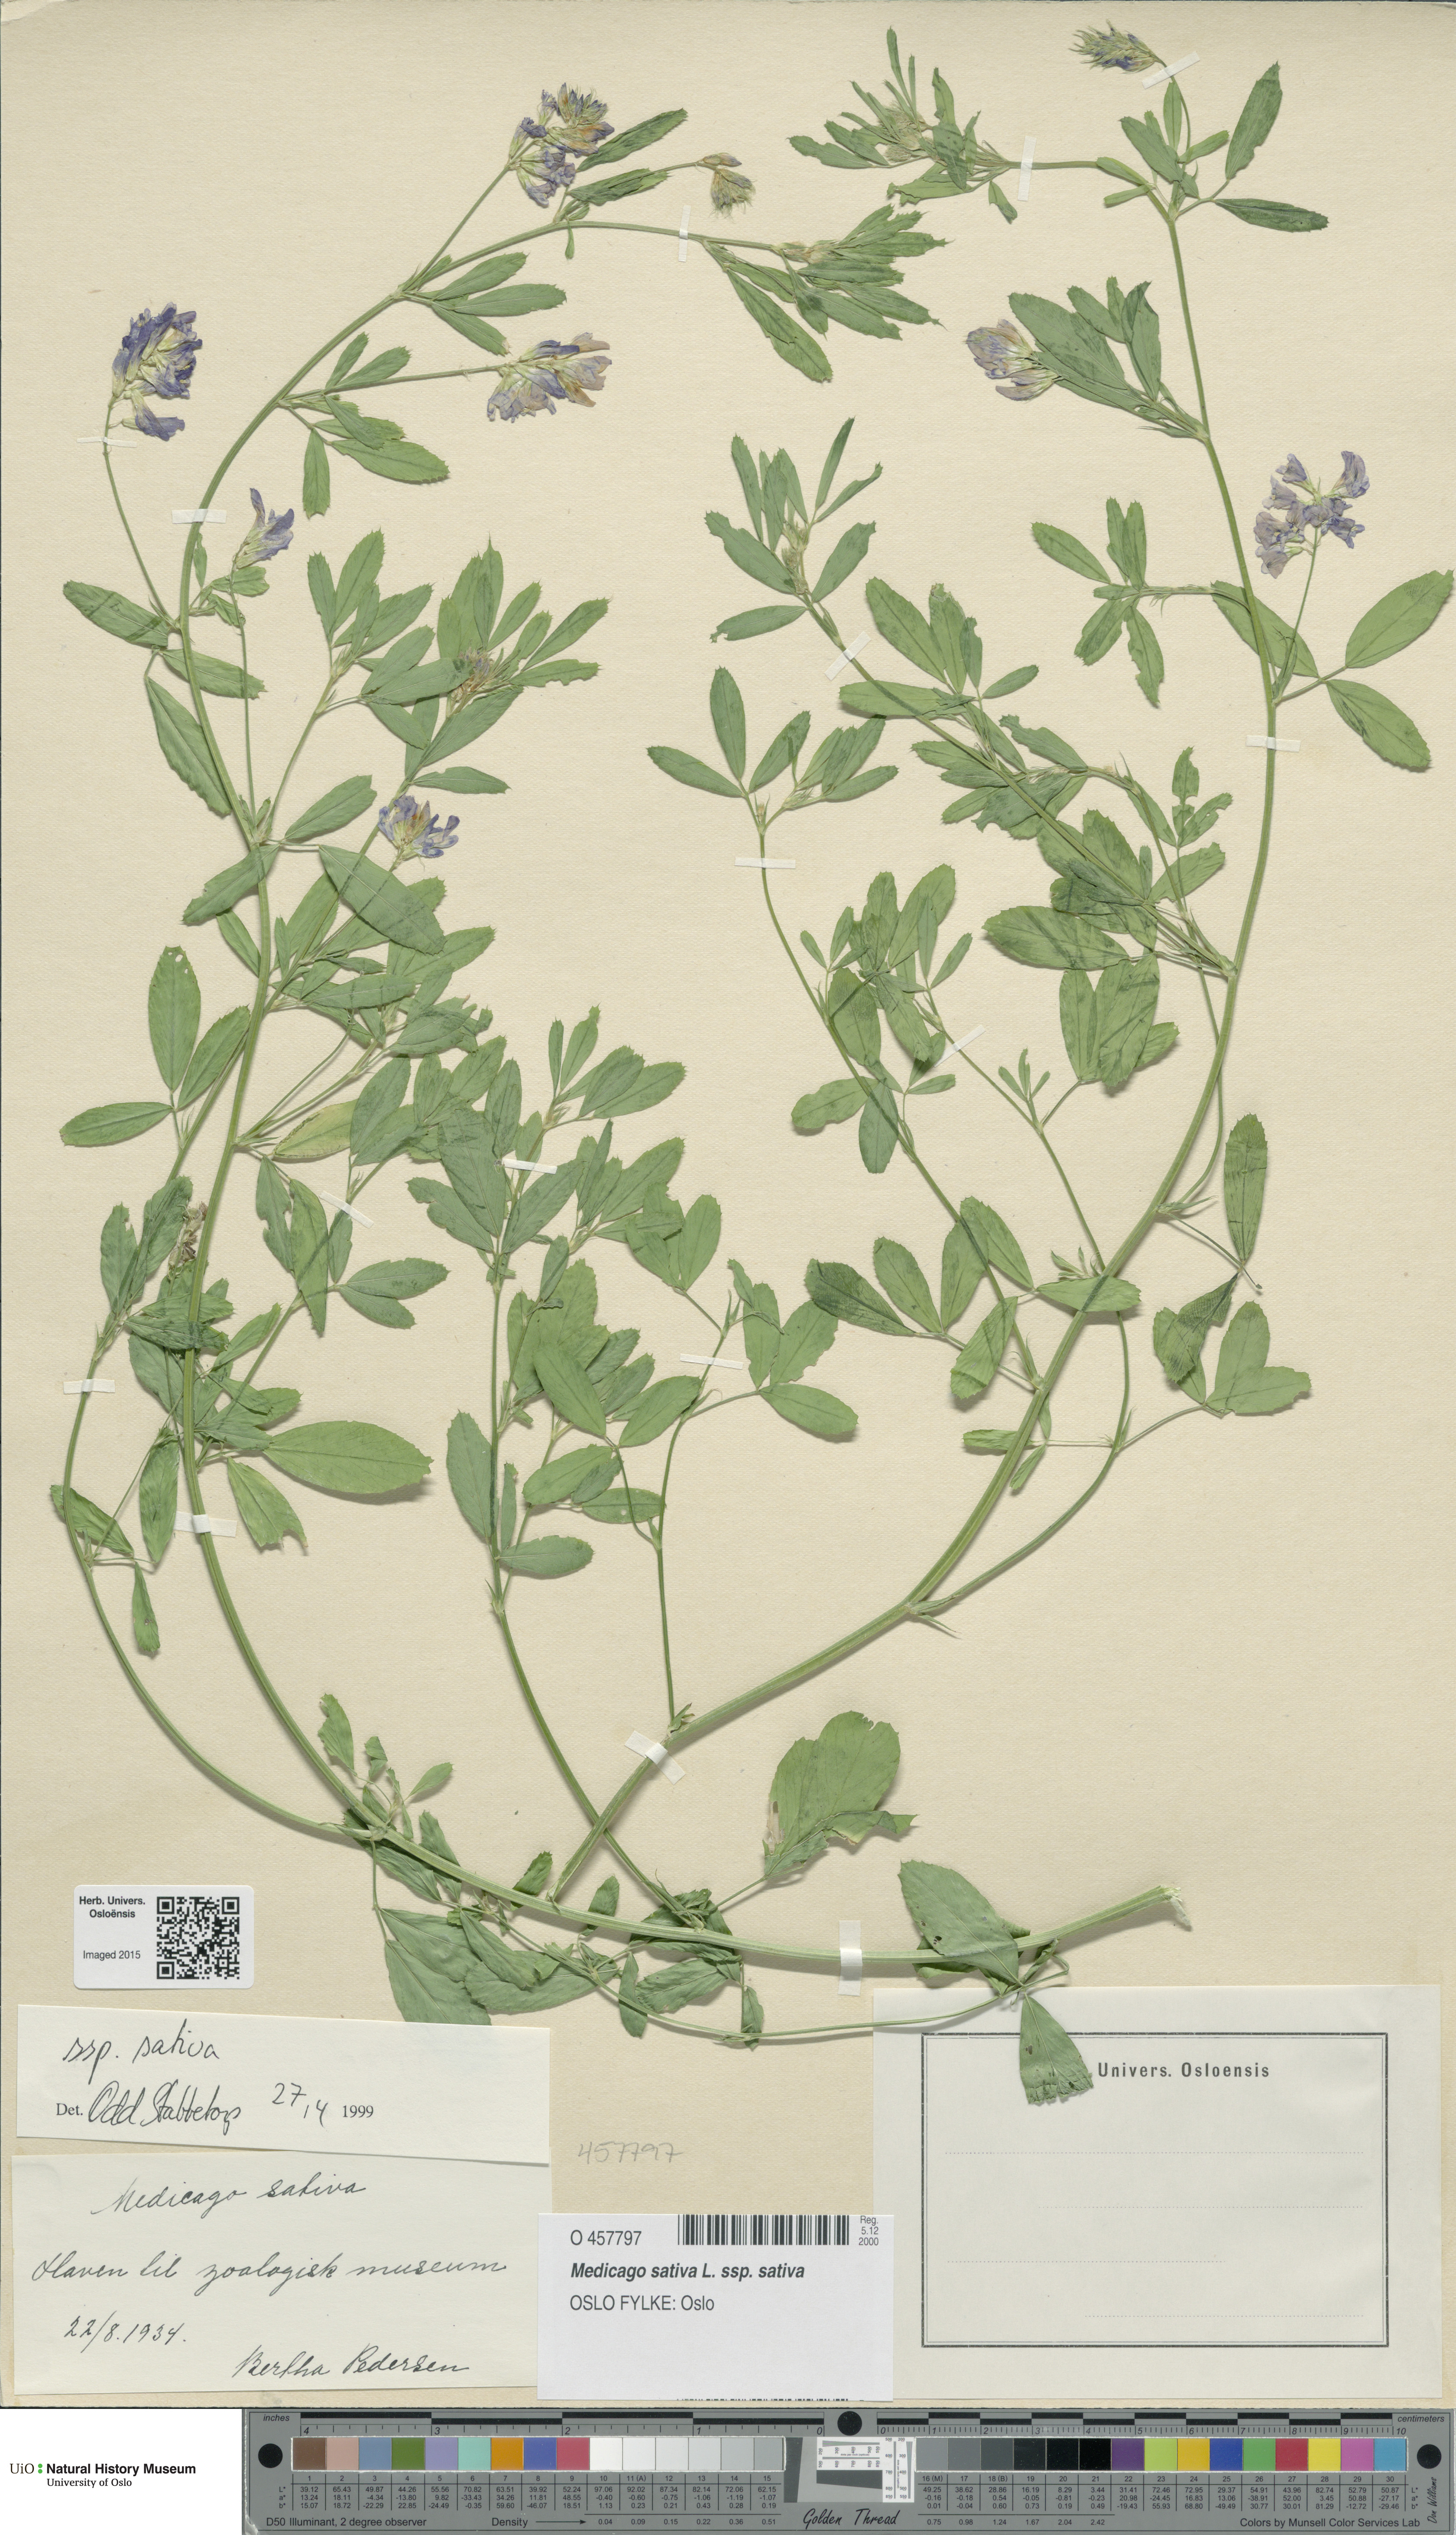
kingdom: Plantae
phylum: Tracheophyta
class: Magnoliopsida
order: Fabales
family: Fabaceae
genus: Medicago
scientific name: Medicago sativa
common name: Alfalfa
